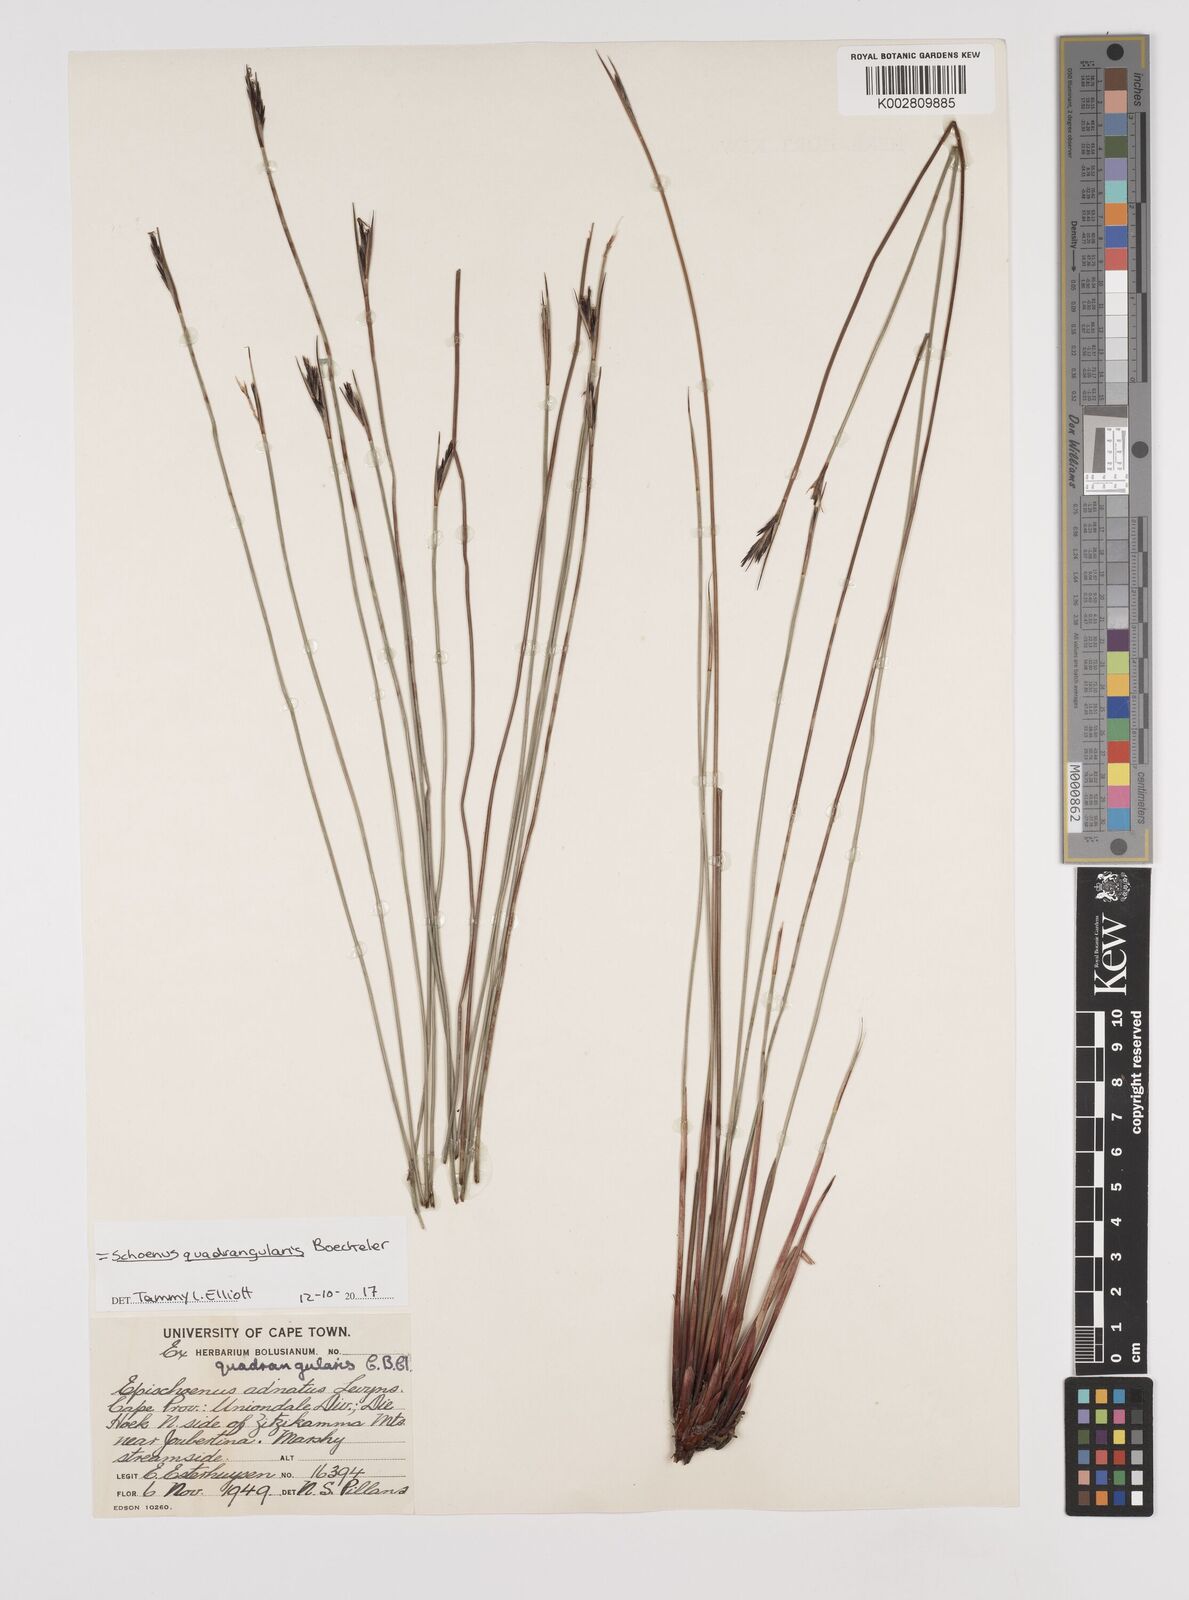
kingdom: Plantae
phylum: Tracheophyta
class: Liliopsida
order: Poales
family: Cyperaceae
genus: Schoenus
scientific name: Schoenus
